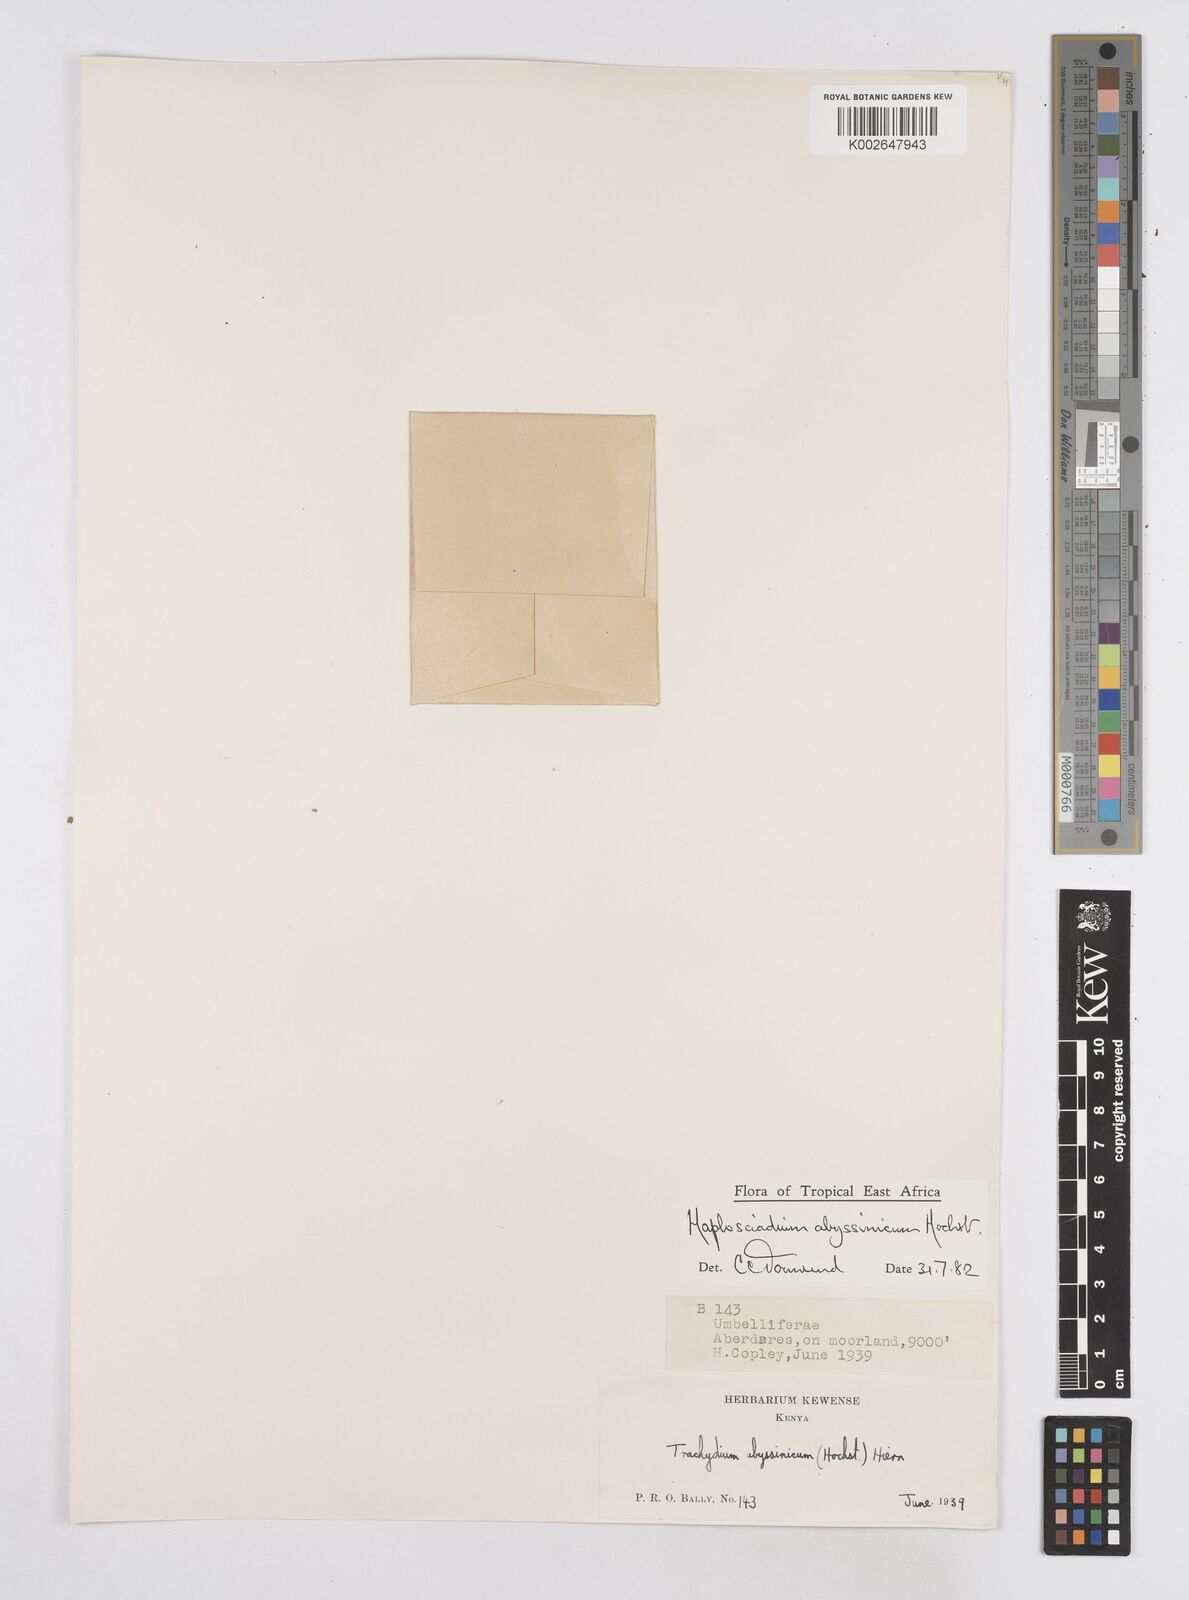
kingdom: Plantae
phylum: Tracheophyta
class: Magnoliopsida
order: Apiales
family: Apiaceae
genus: Haplosciadium
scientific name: Haplosciadium abyssinicum
